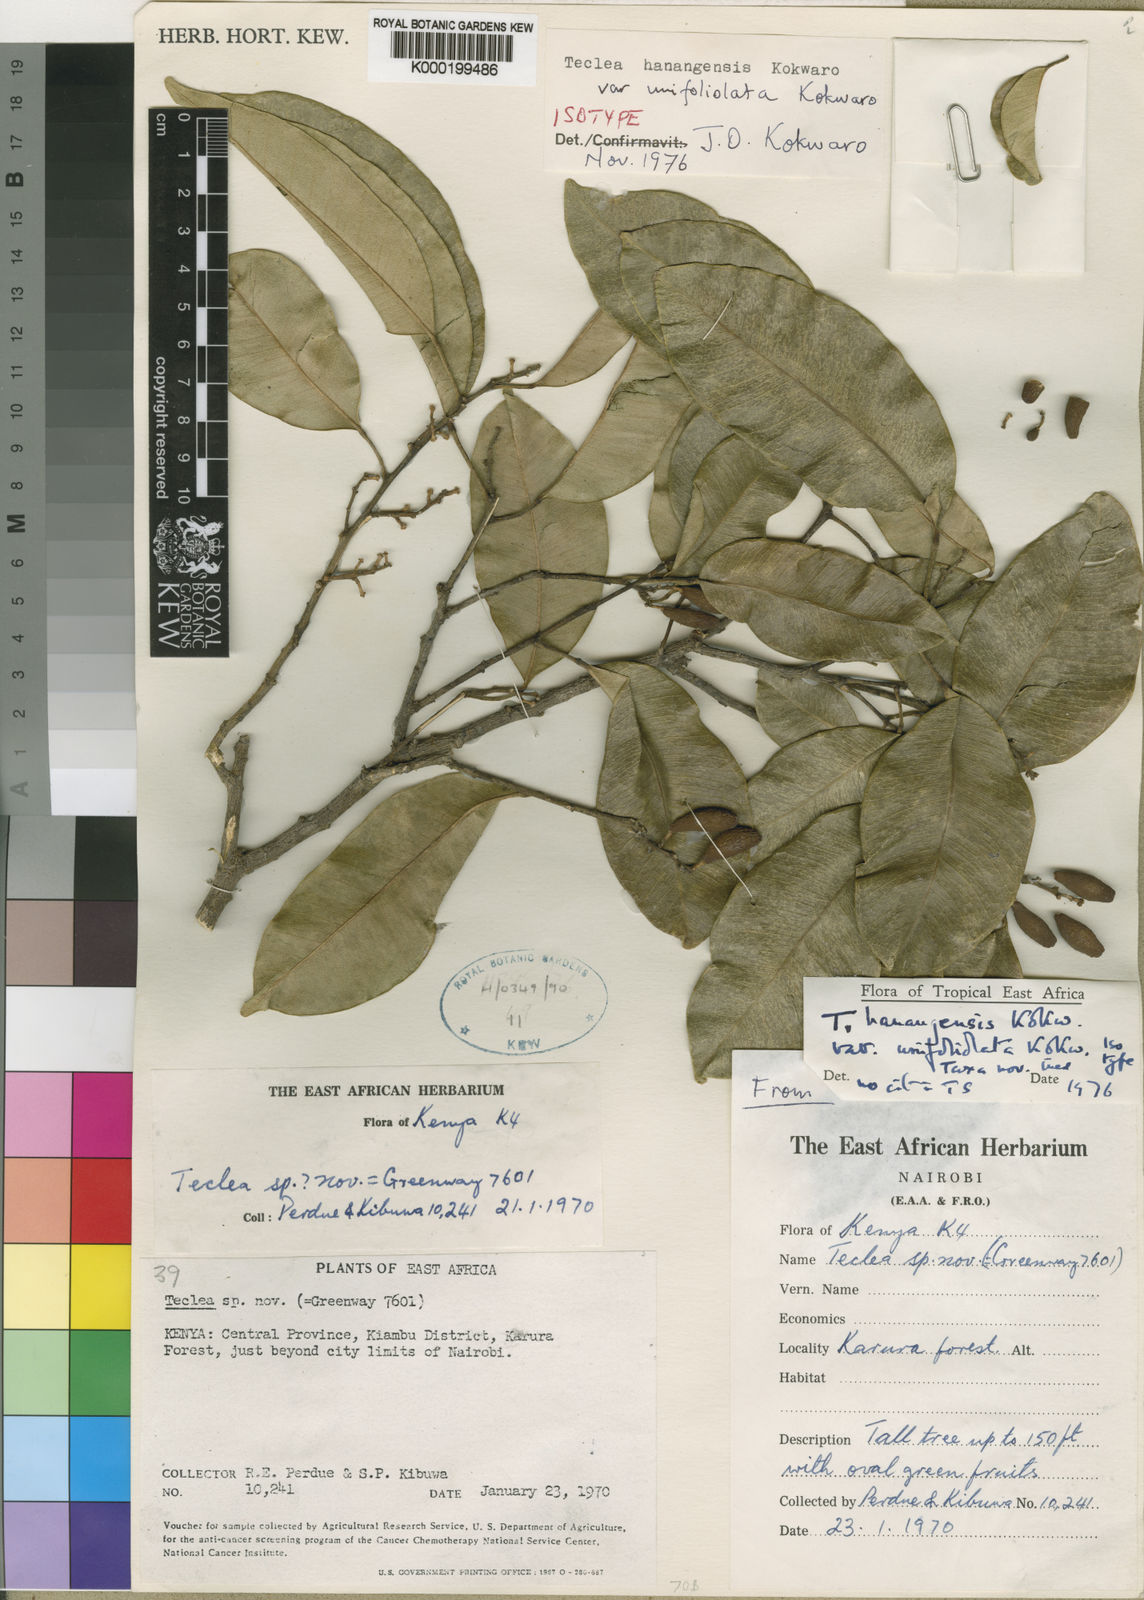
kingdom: Plantae
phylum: Tracheophyta
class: Magnoliopsida
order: Sapindales
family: Rutaceae
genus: Vepris
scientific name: Vepris hanangensis
